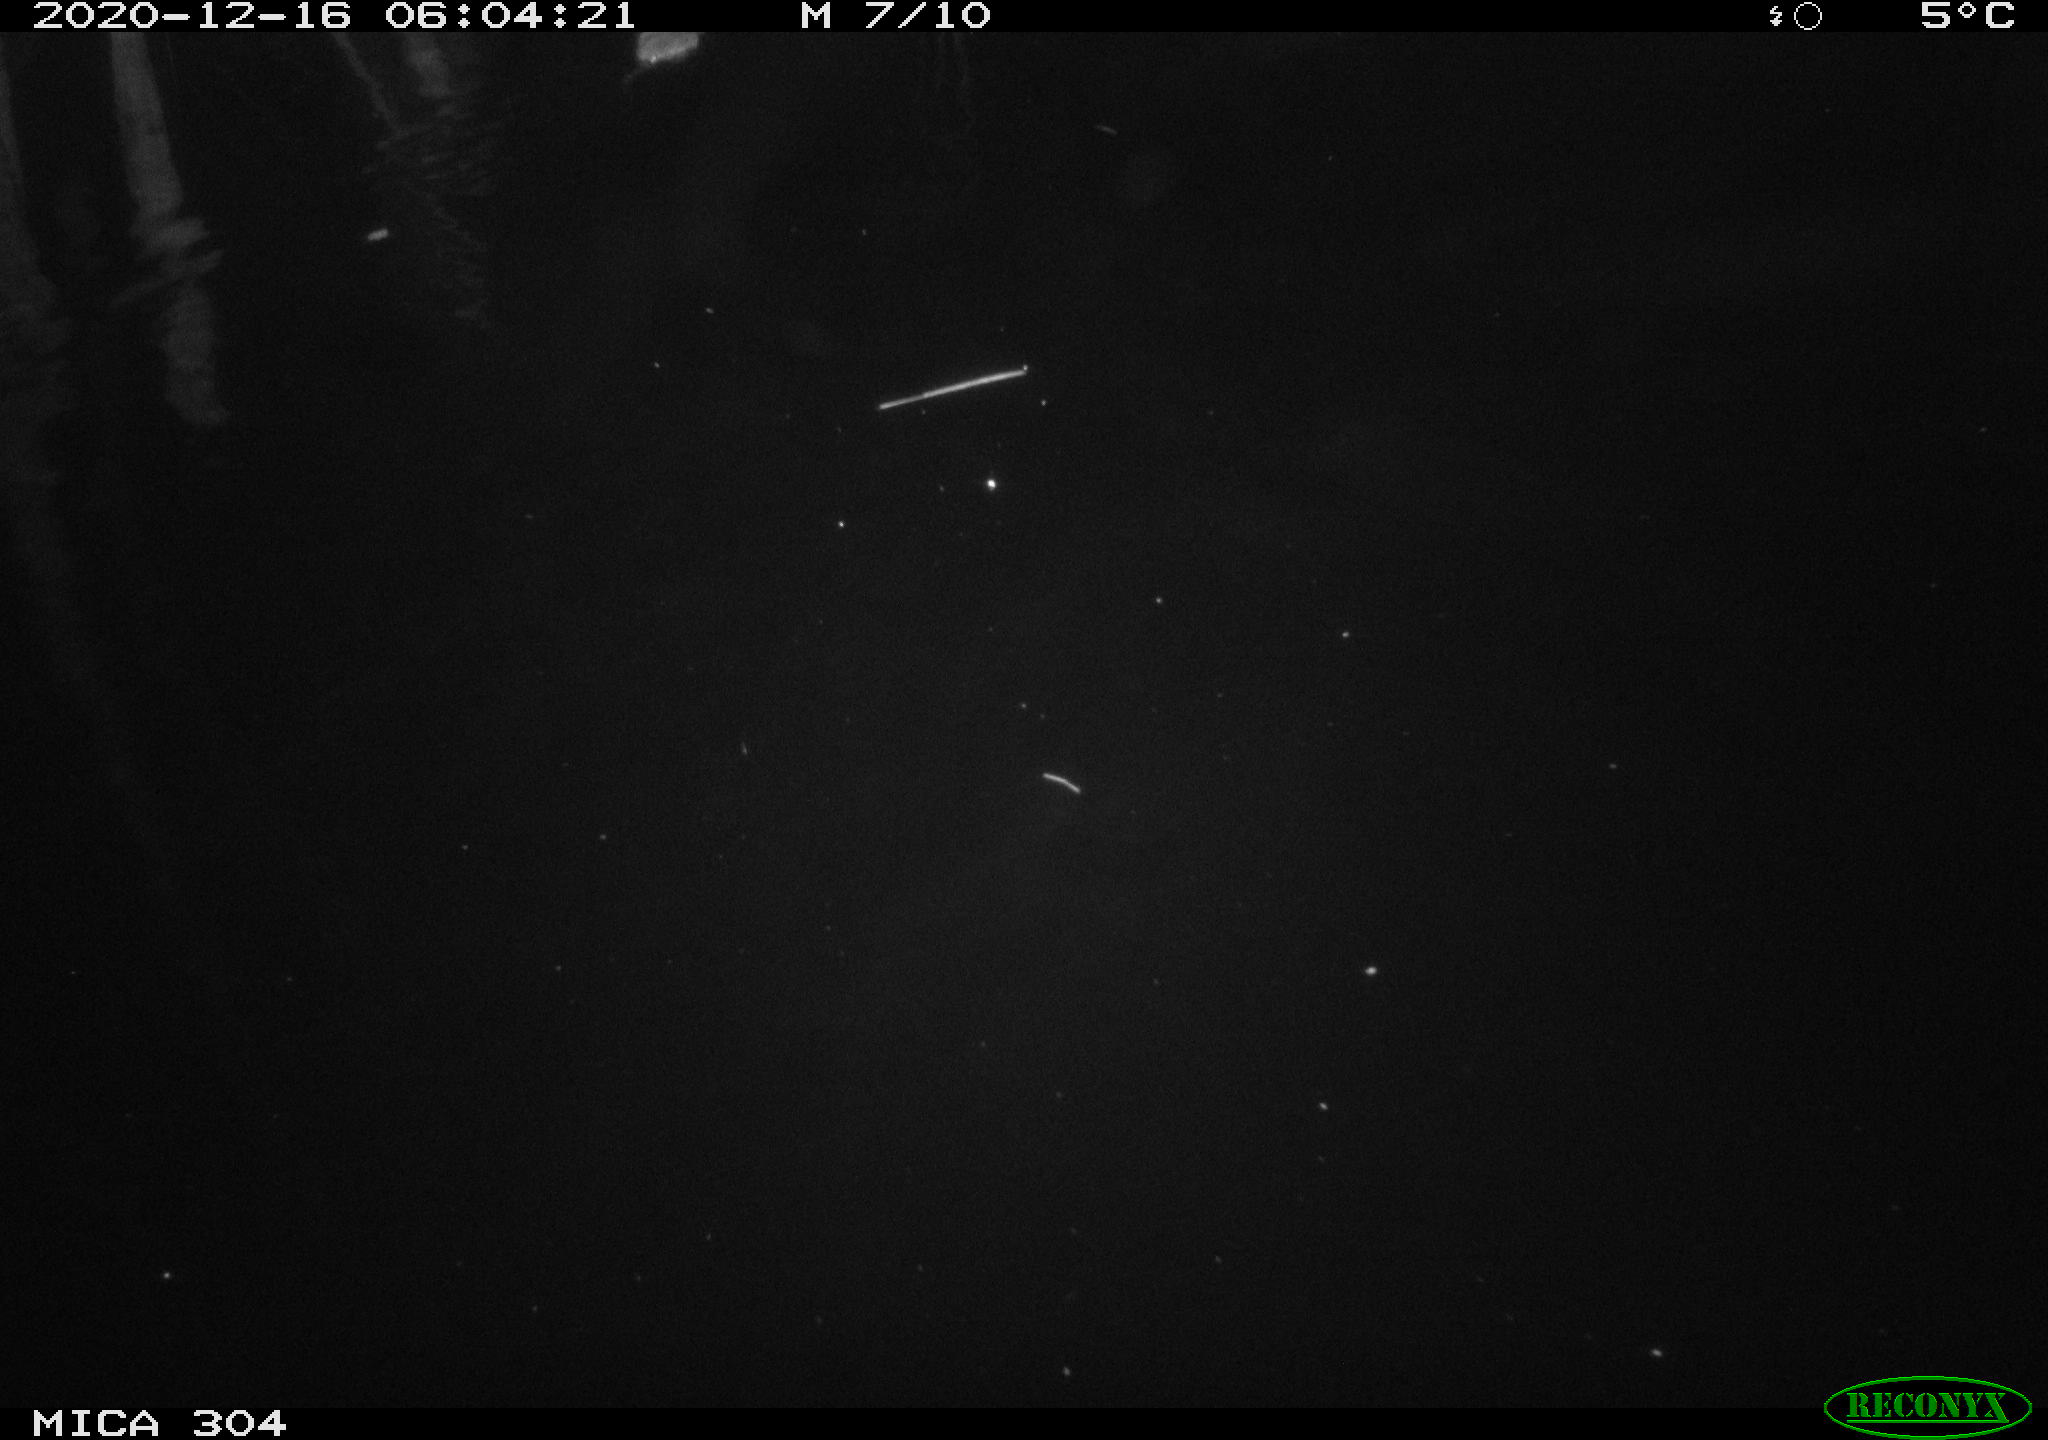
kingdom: Animalia
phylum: Chordata
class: Mammalia
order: Rodentia
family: Cricetidae
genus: Ondatra
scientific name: Ondatra zibethicus
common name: Muskrat
